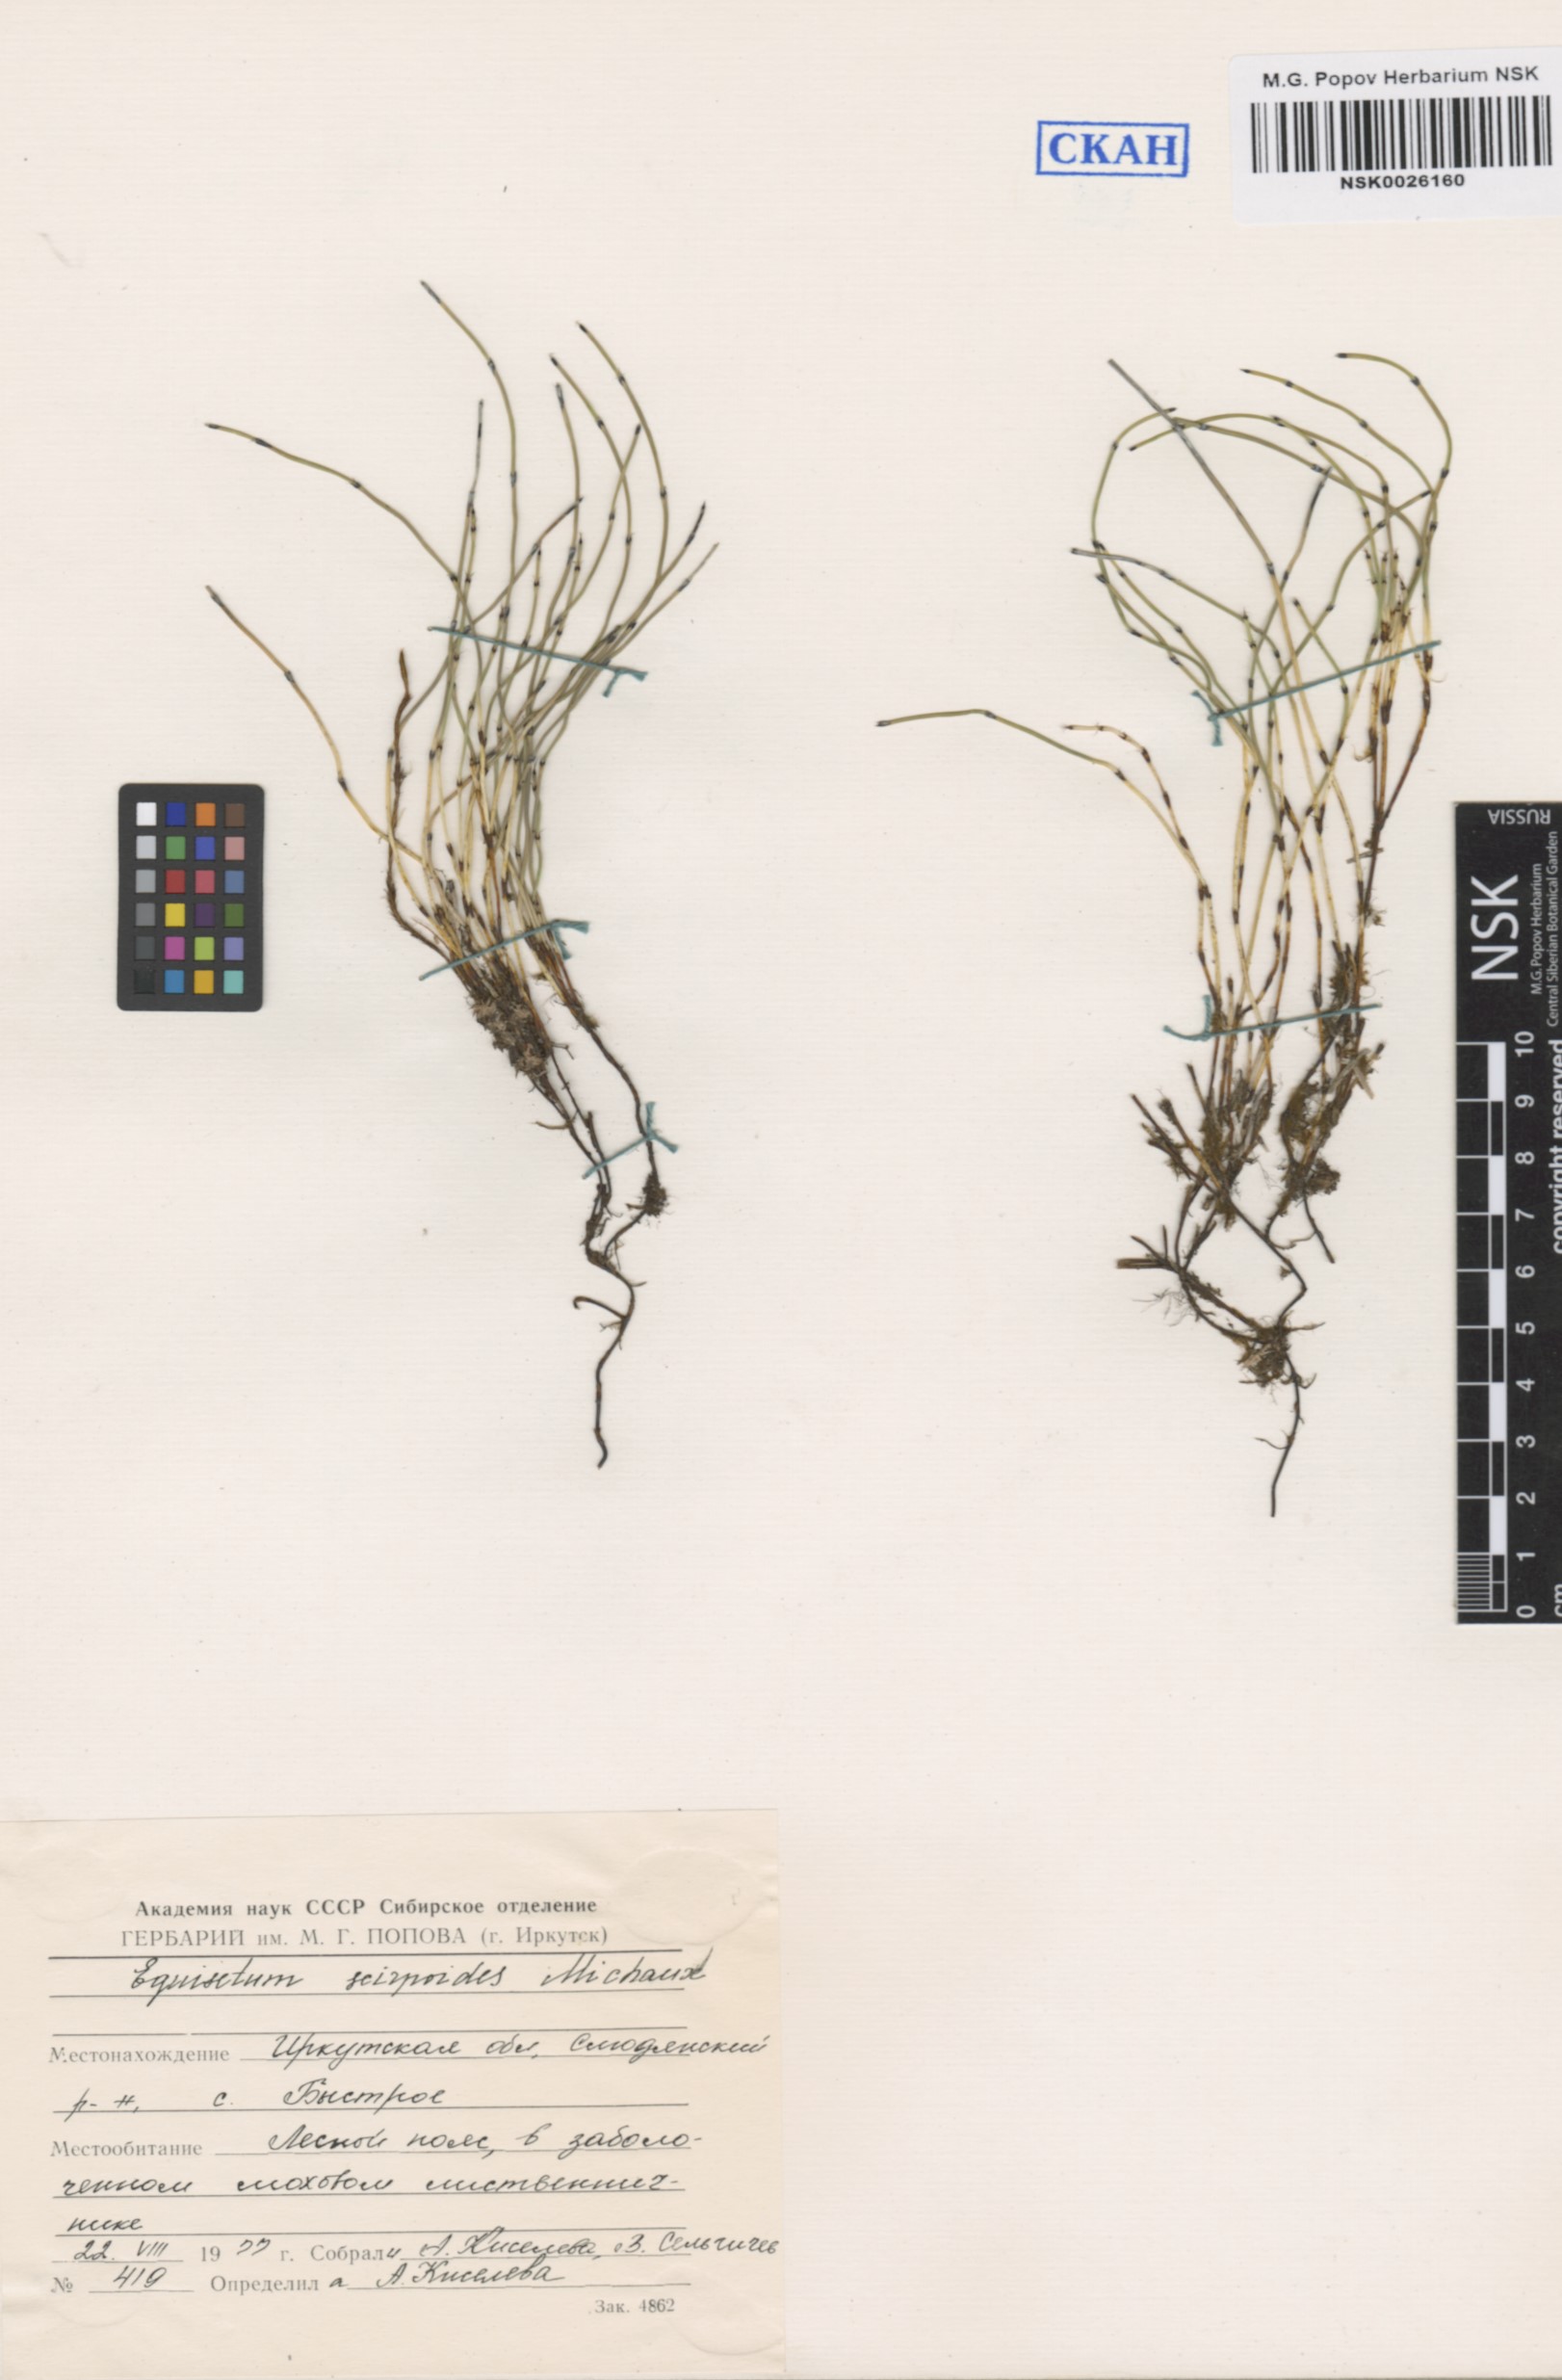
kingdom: Plantae
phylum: Tracheophyta
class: Polypodiopsida
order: Equisetales
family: Equisetaceae
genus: Equisetum
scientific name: Equisetum scirpoides
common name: Delicate horsetail
